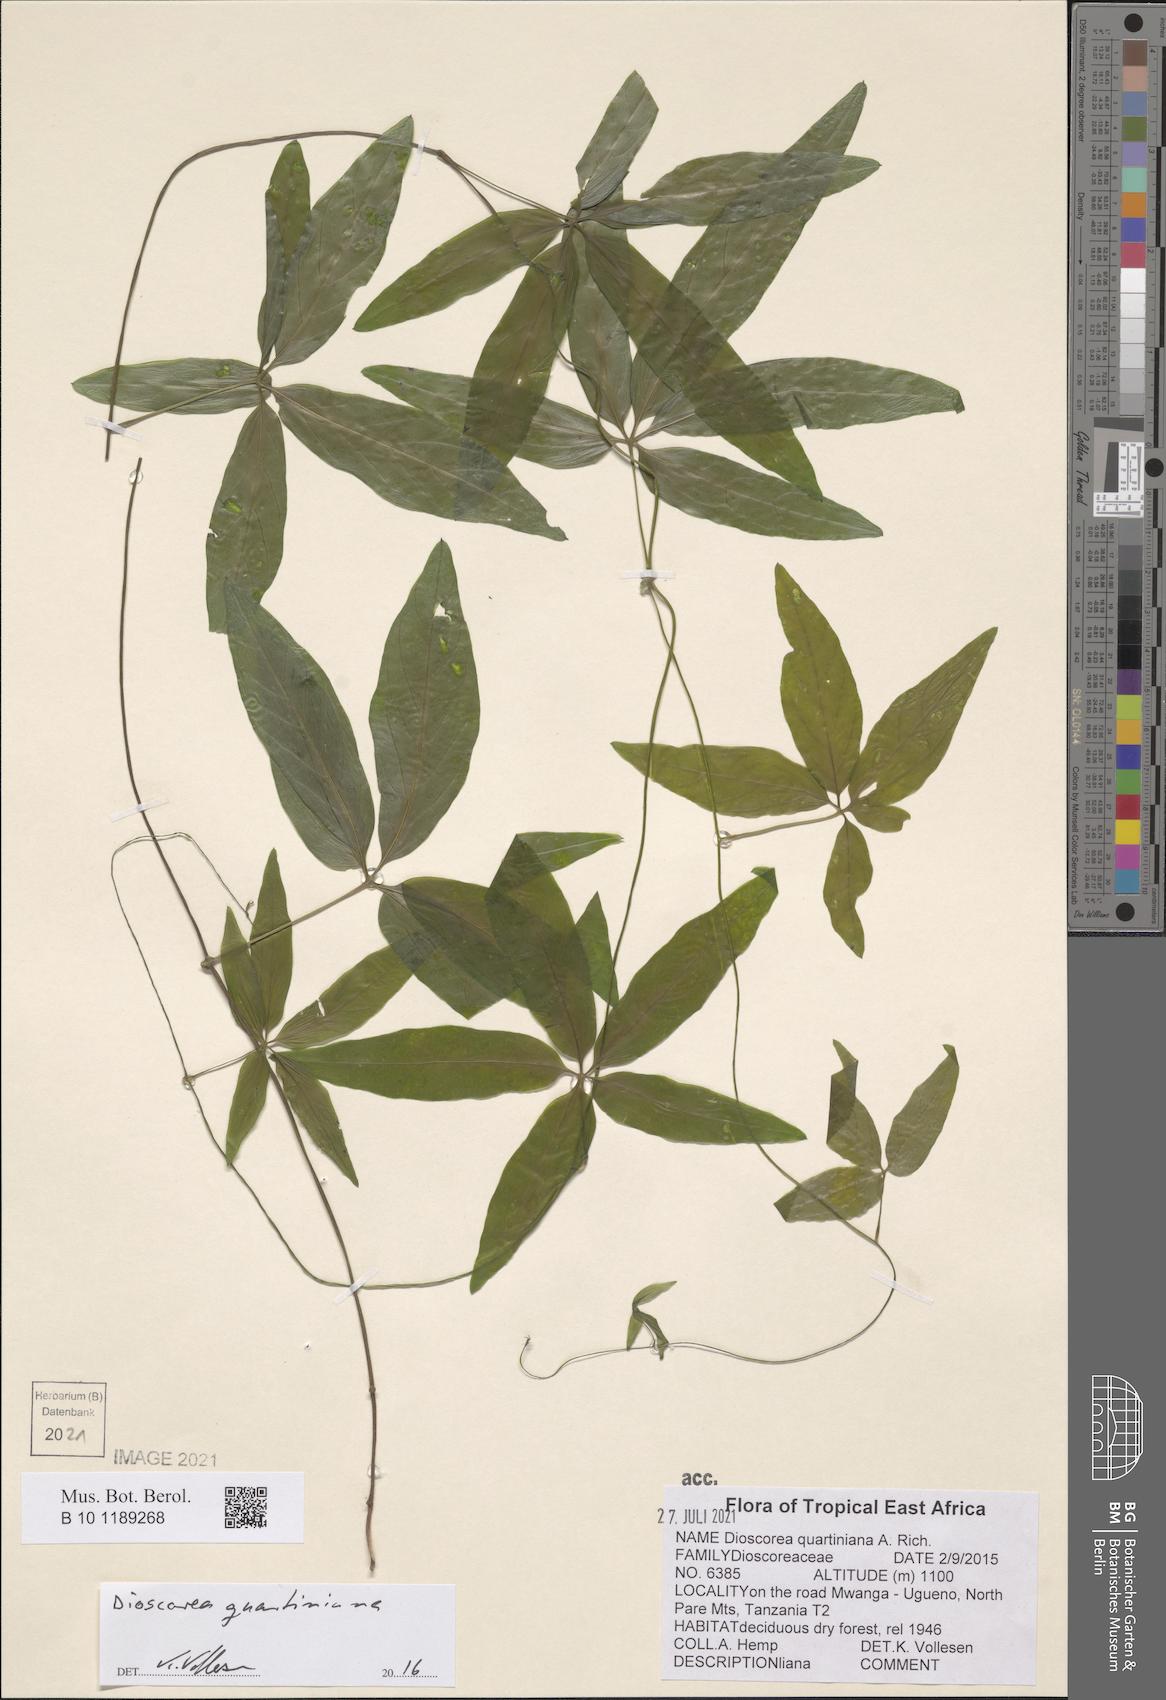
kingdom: Plantae
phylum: Tracheophyta
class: Liliopsida
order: Dioscoreales
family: Dioscoreaceae
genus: Dioscorea
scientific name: Dioscorea quartiniana
